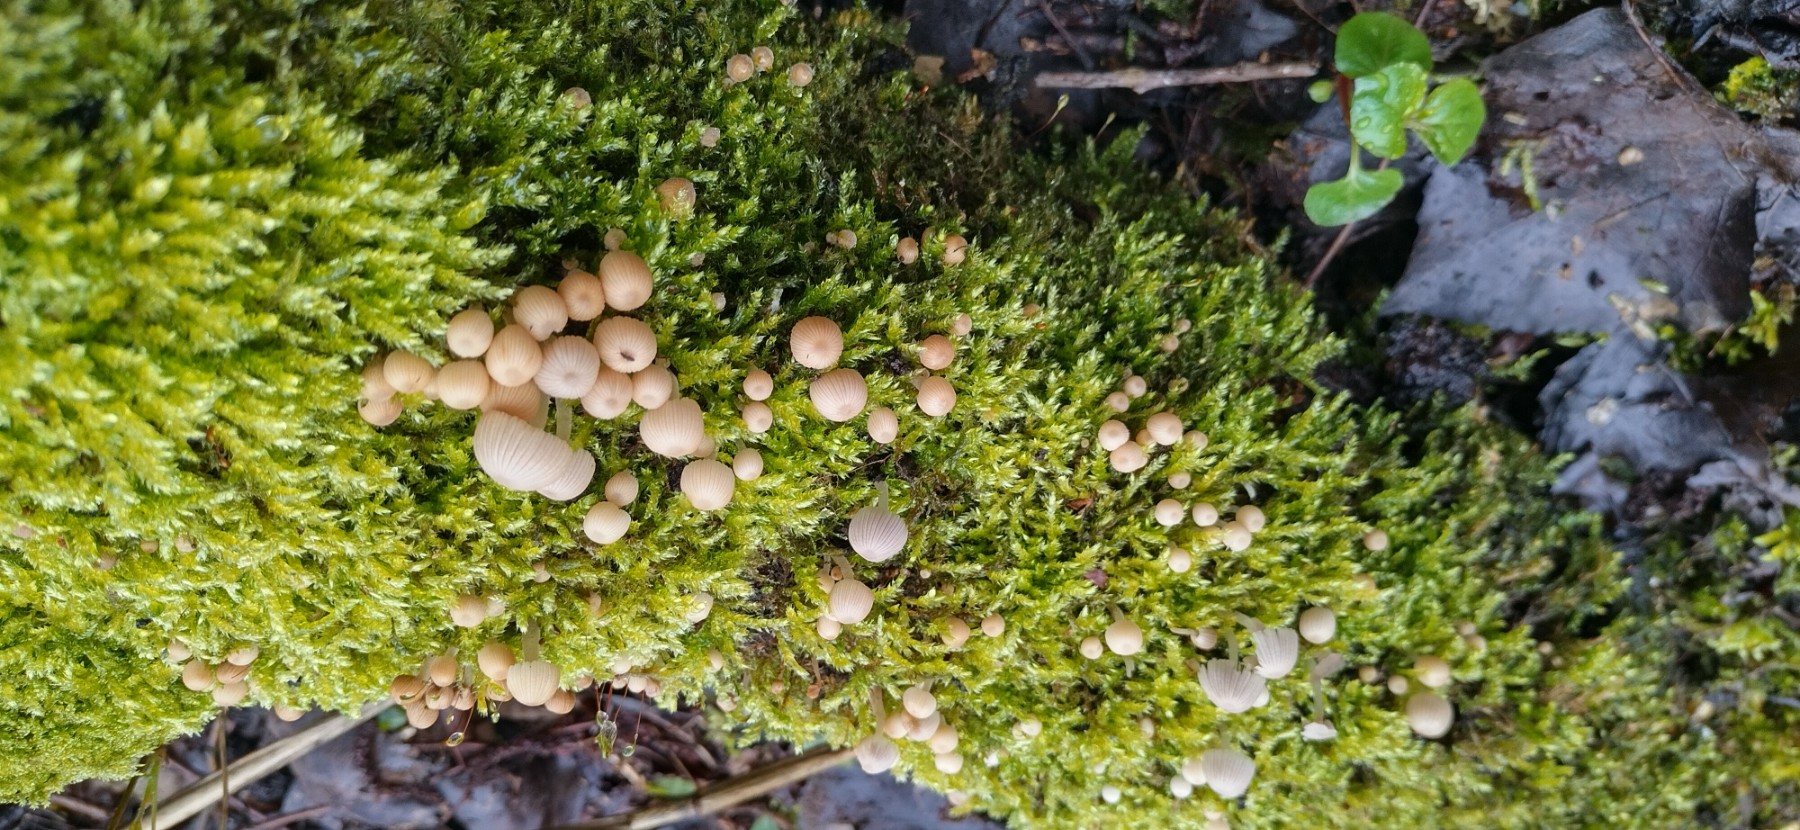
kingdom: Fungi
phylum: Basidiomycota
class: Agaricomycetes
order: Agaricales
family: Psathyrellaceae
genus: Coprinellus
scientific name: Coprinellus disseminatus
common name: bredsået blækhat
